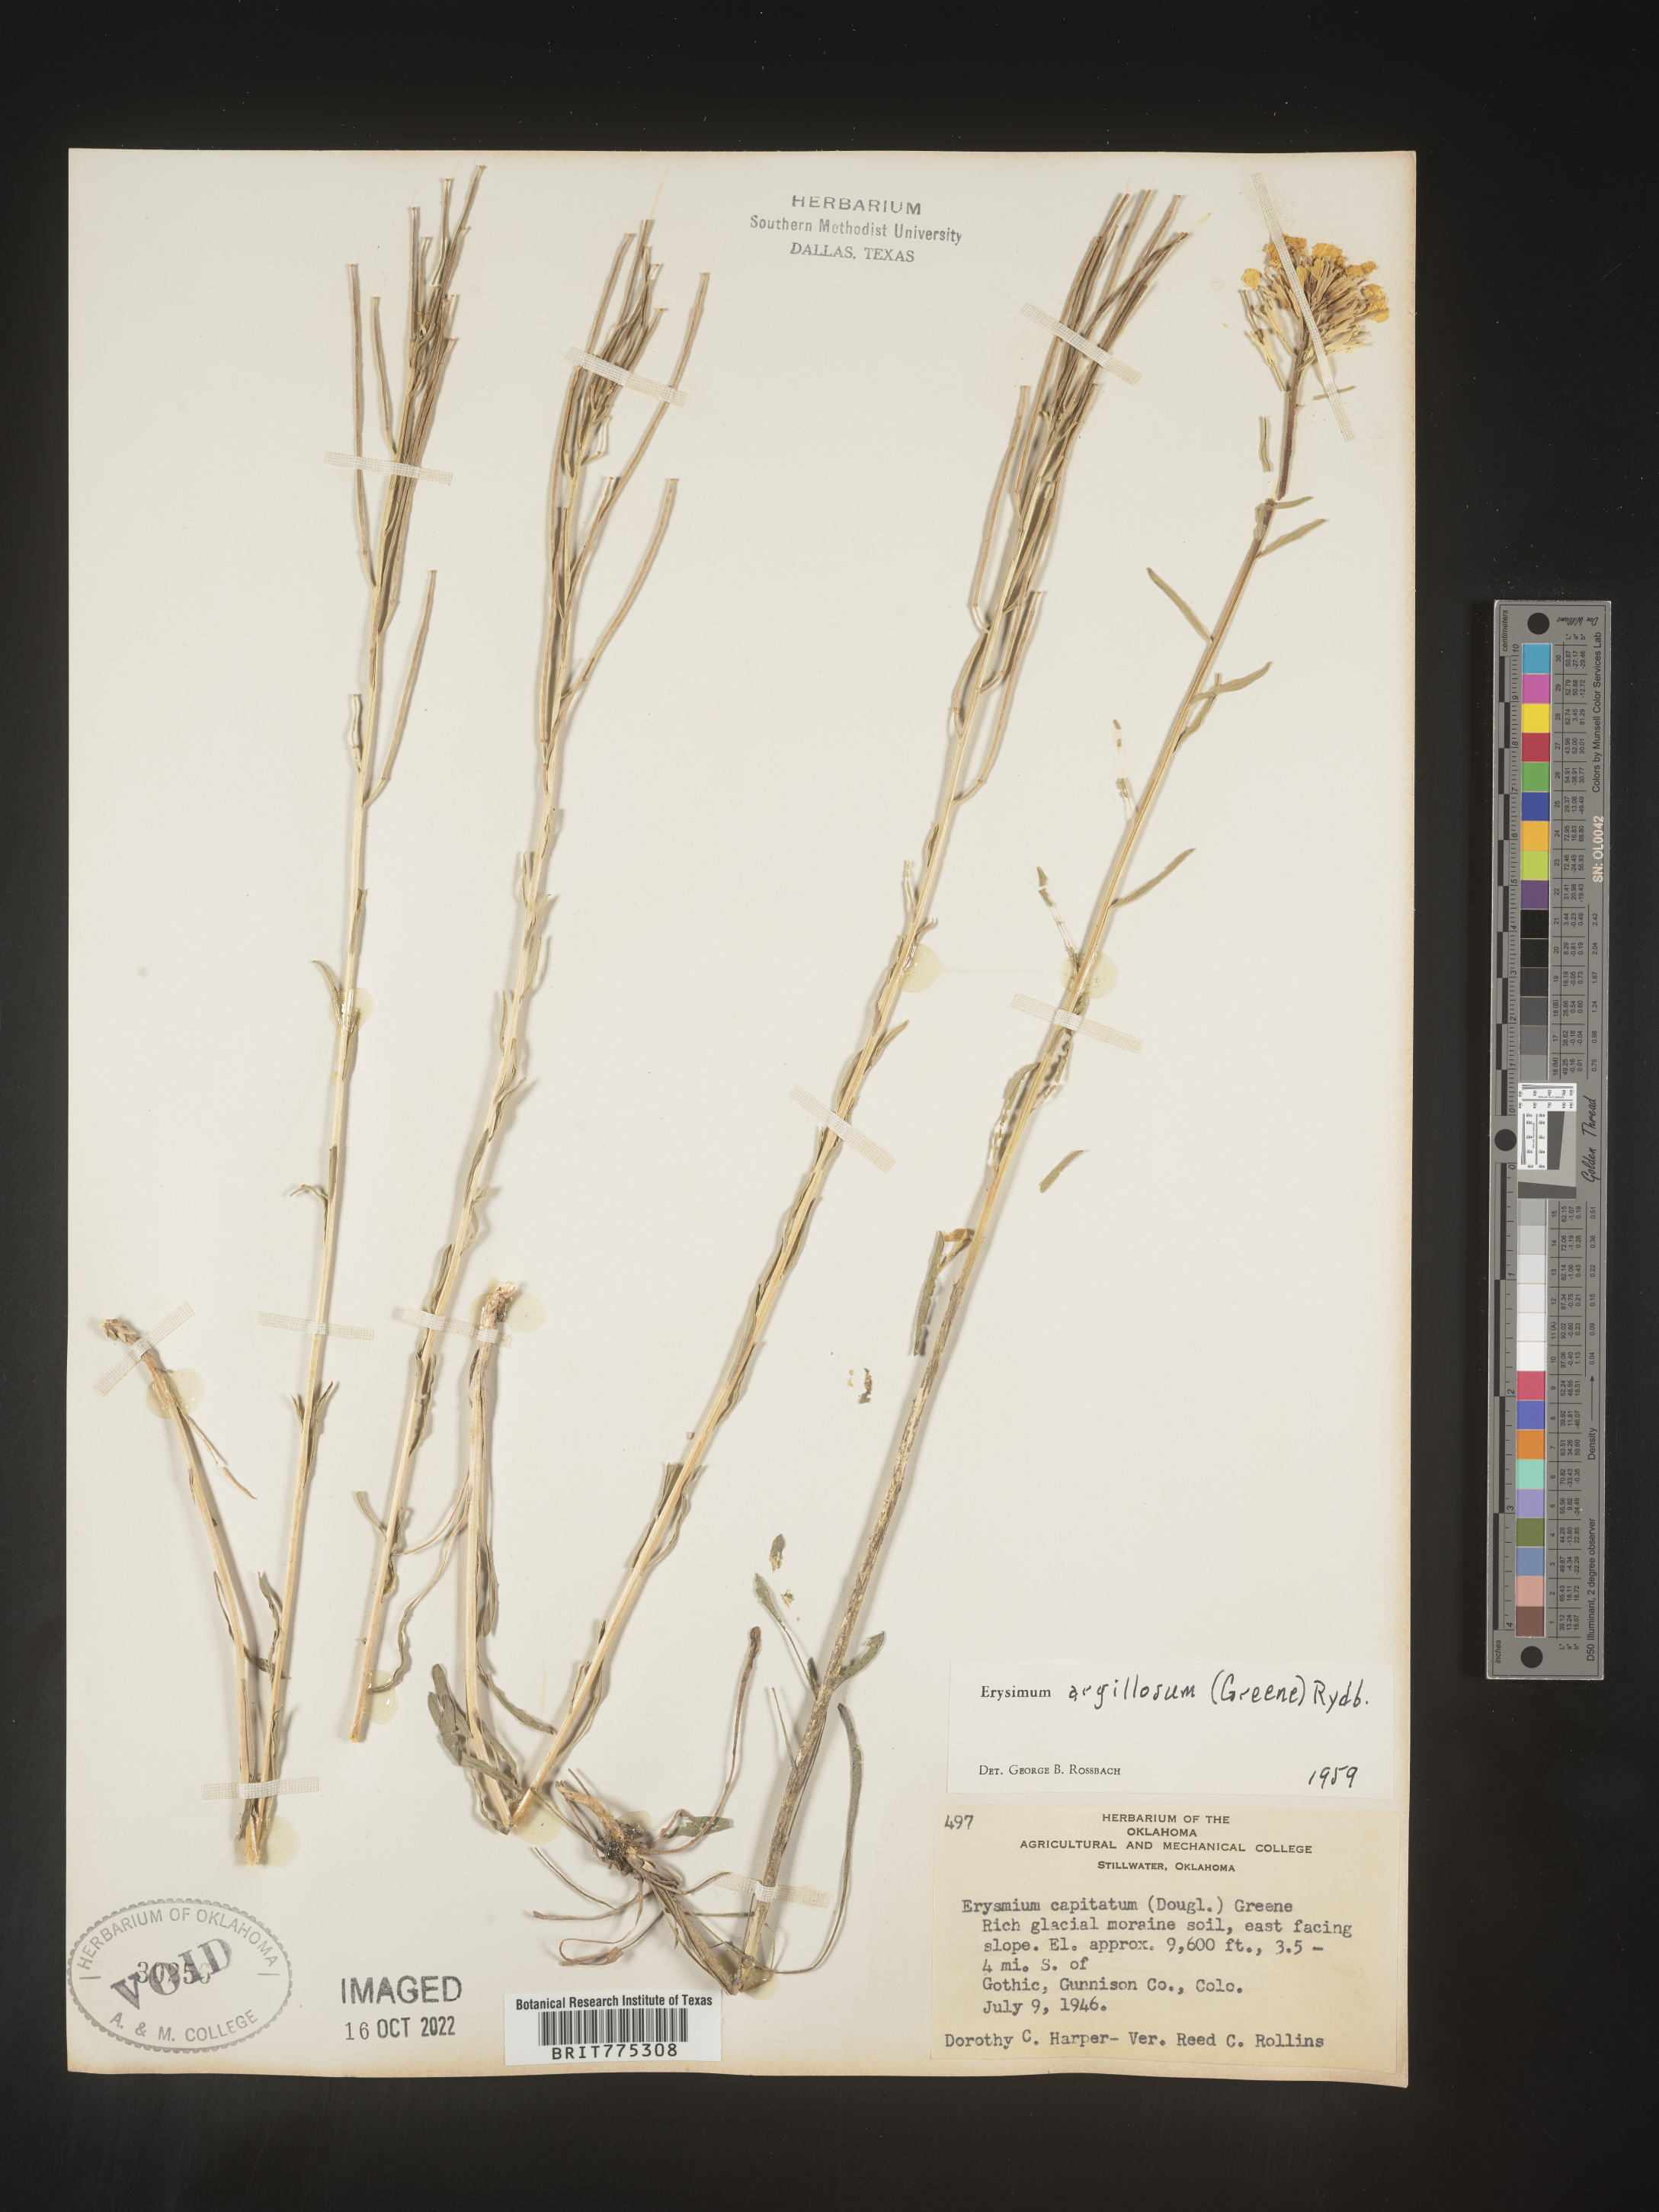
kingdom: Plantae
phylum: Tracheophyta
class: Magnoliopsida
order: Brassicales
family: Brassicaceae
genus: Erysimum
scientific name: Erysimum capitatum
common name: Western wallflower
